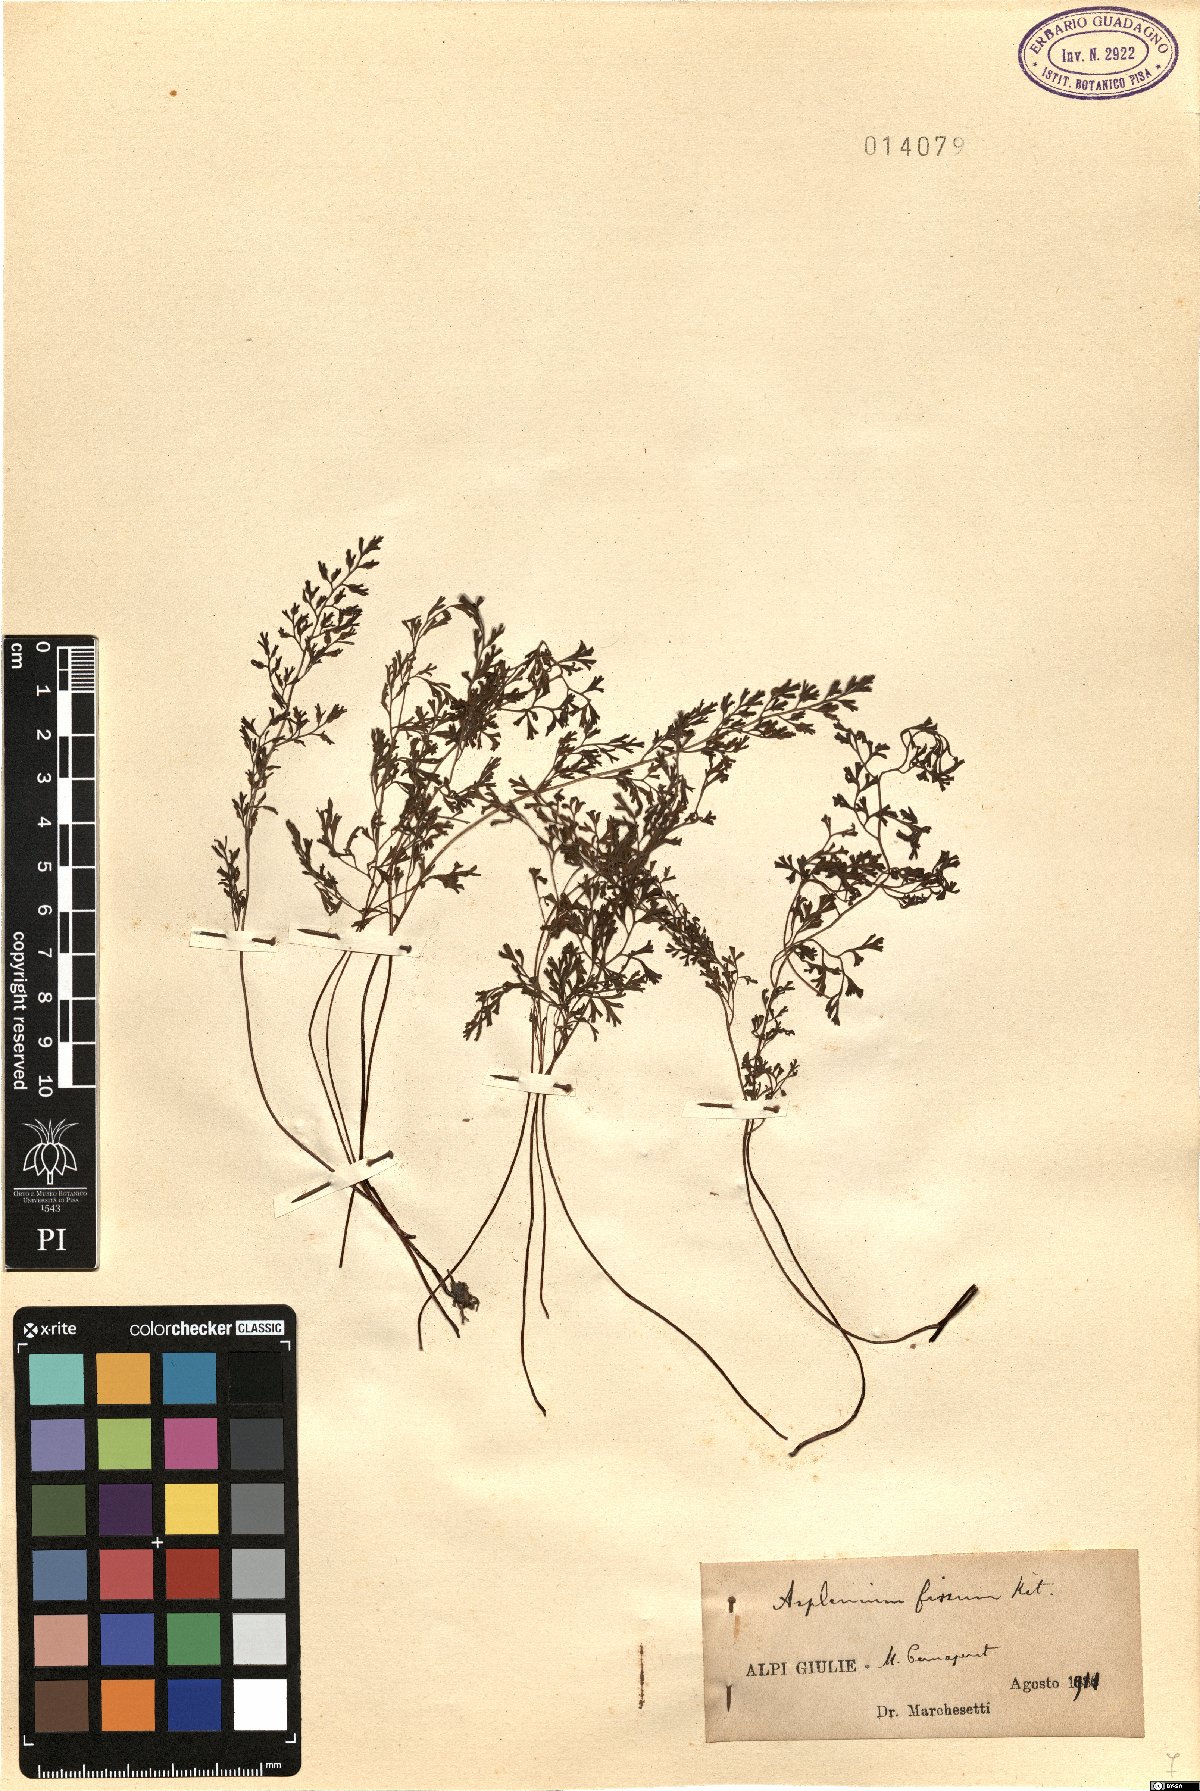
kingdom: Plantae
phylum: Tracheophyta
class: Polypodiopsida
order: Polypodiales
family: Aspleniaceae
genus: Asplenium
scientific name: Asplenium fissum
